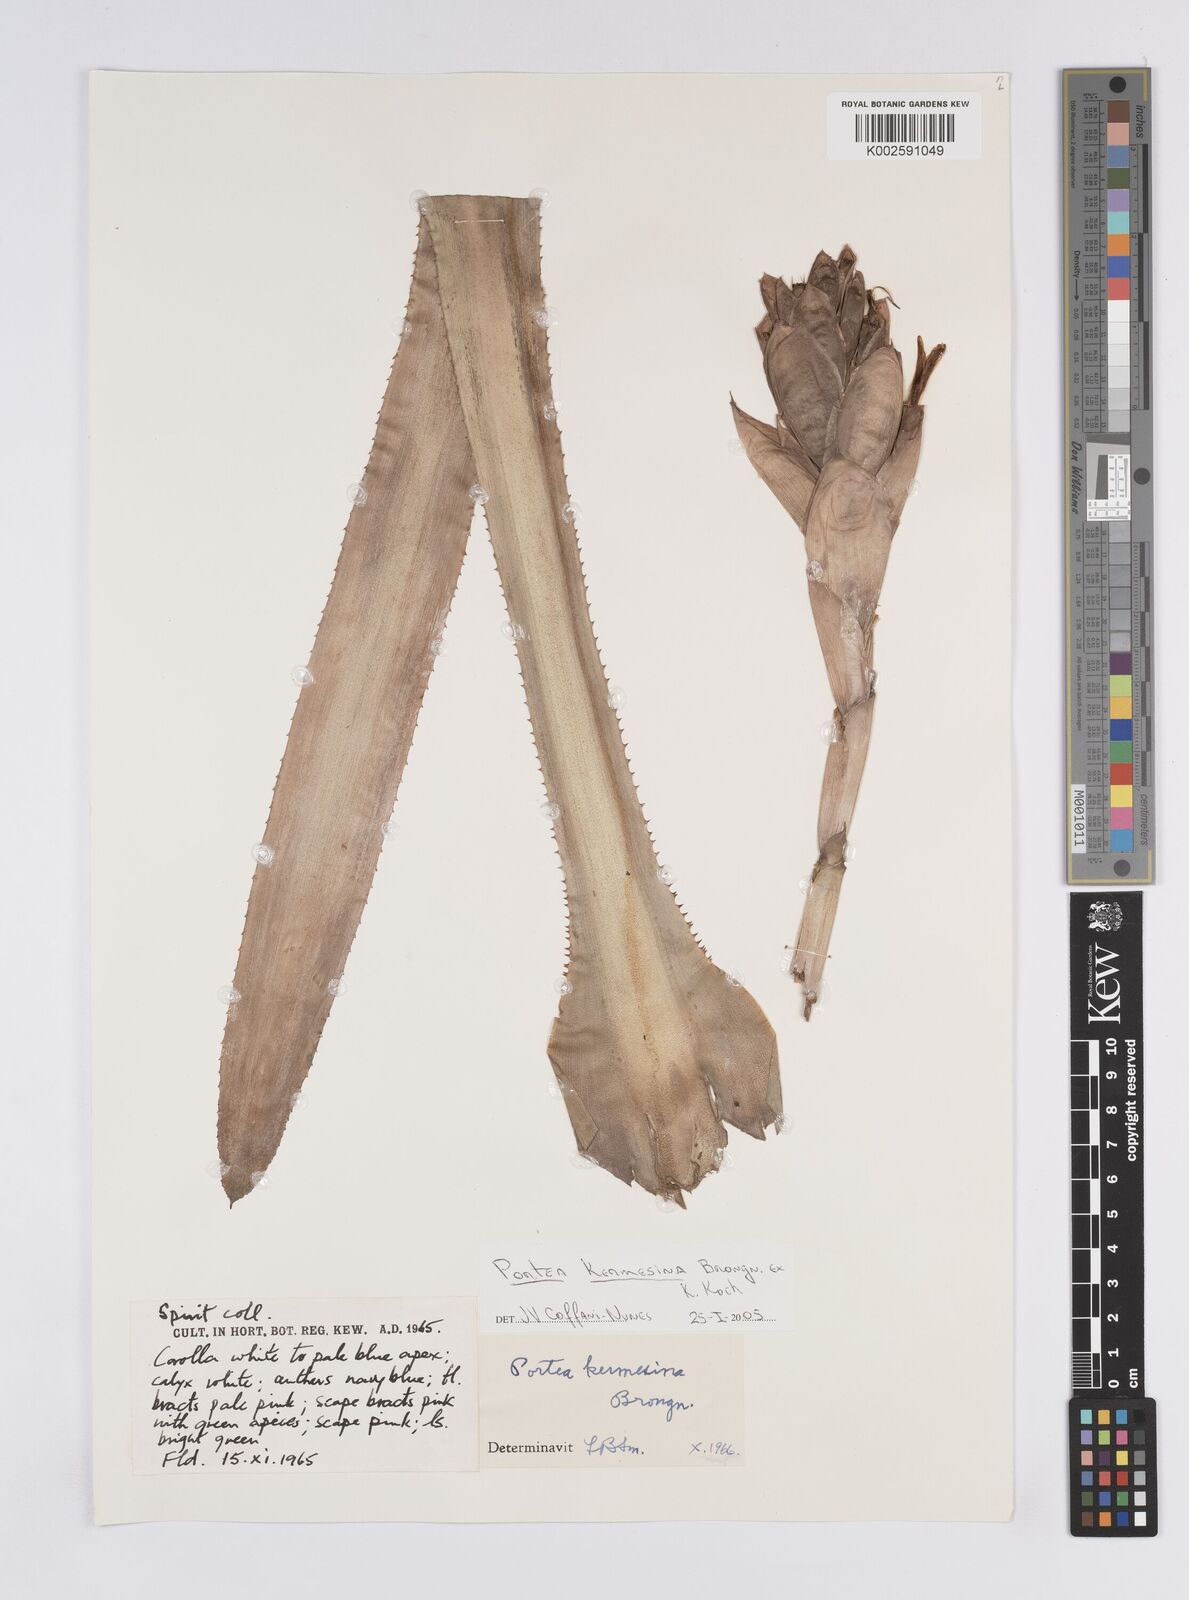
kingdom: Plantae
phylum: Tracheophyta
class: Liliopsida
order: Poales
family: Bromeliaceae
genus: Portea
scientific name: Portea kermesina
